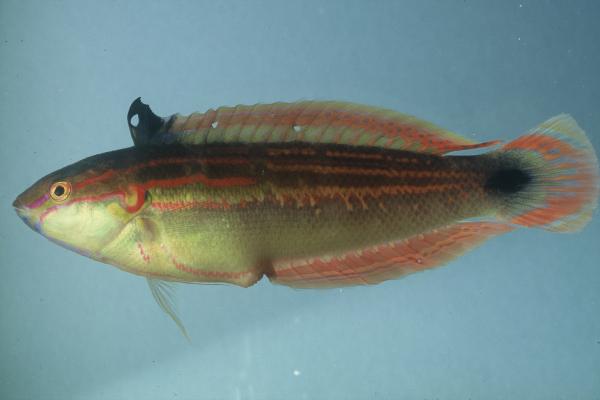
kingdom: Animalia
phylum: Chordata
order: Perciformes
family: Labridae
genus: Coris
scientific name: Coris caudimacula
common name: Spottail coris
